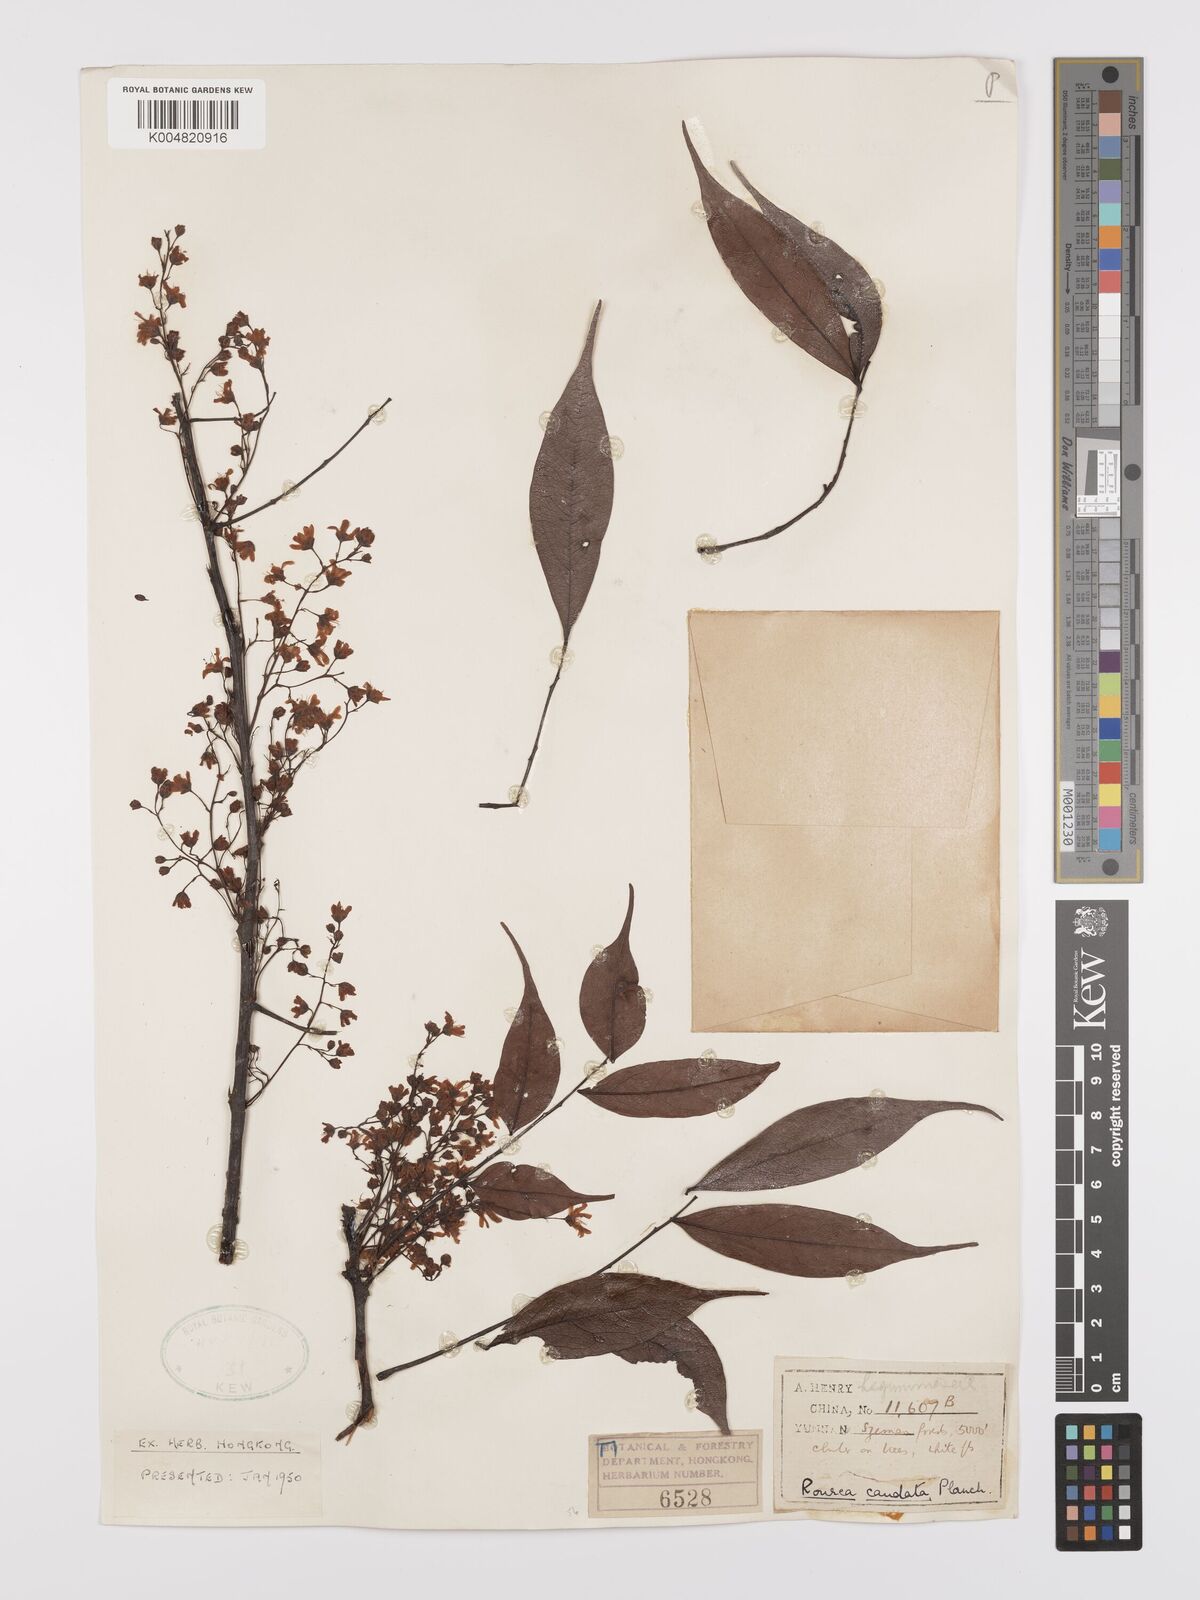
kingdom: Plantae
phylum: Tracheophyta
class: Magnoliopsida
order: Oxalidales
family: Connaraceae
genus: Rourea
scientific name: Rourea caudata
